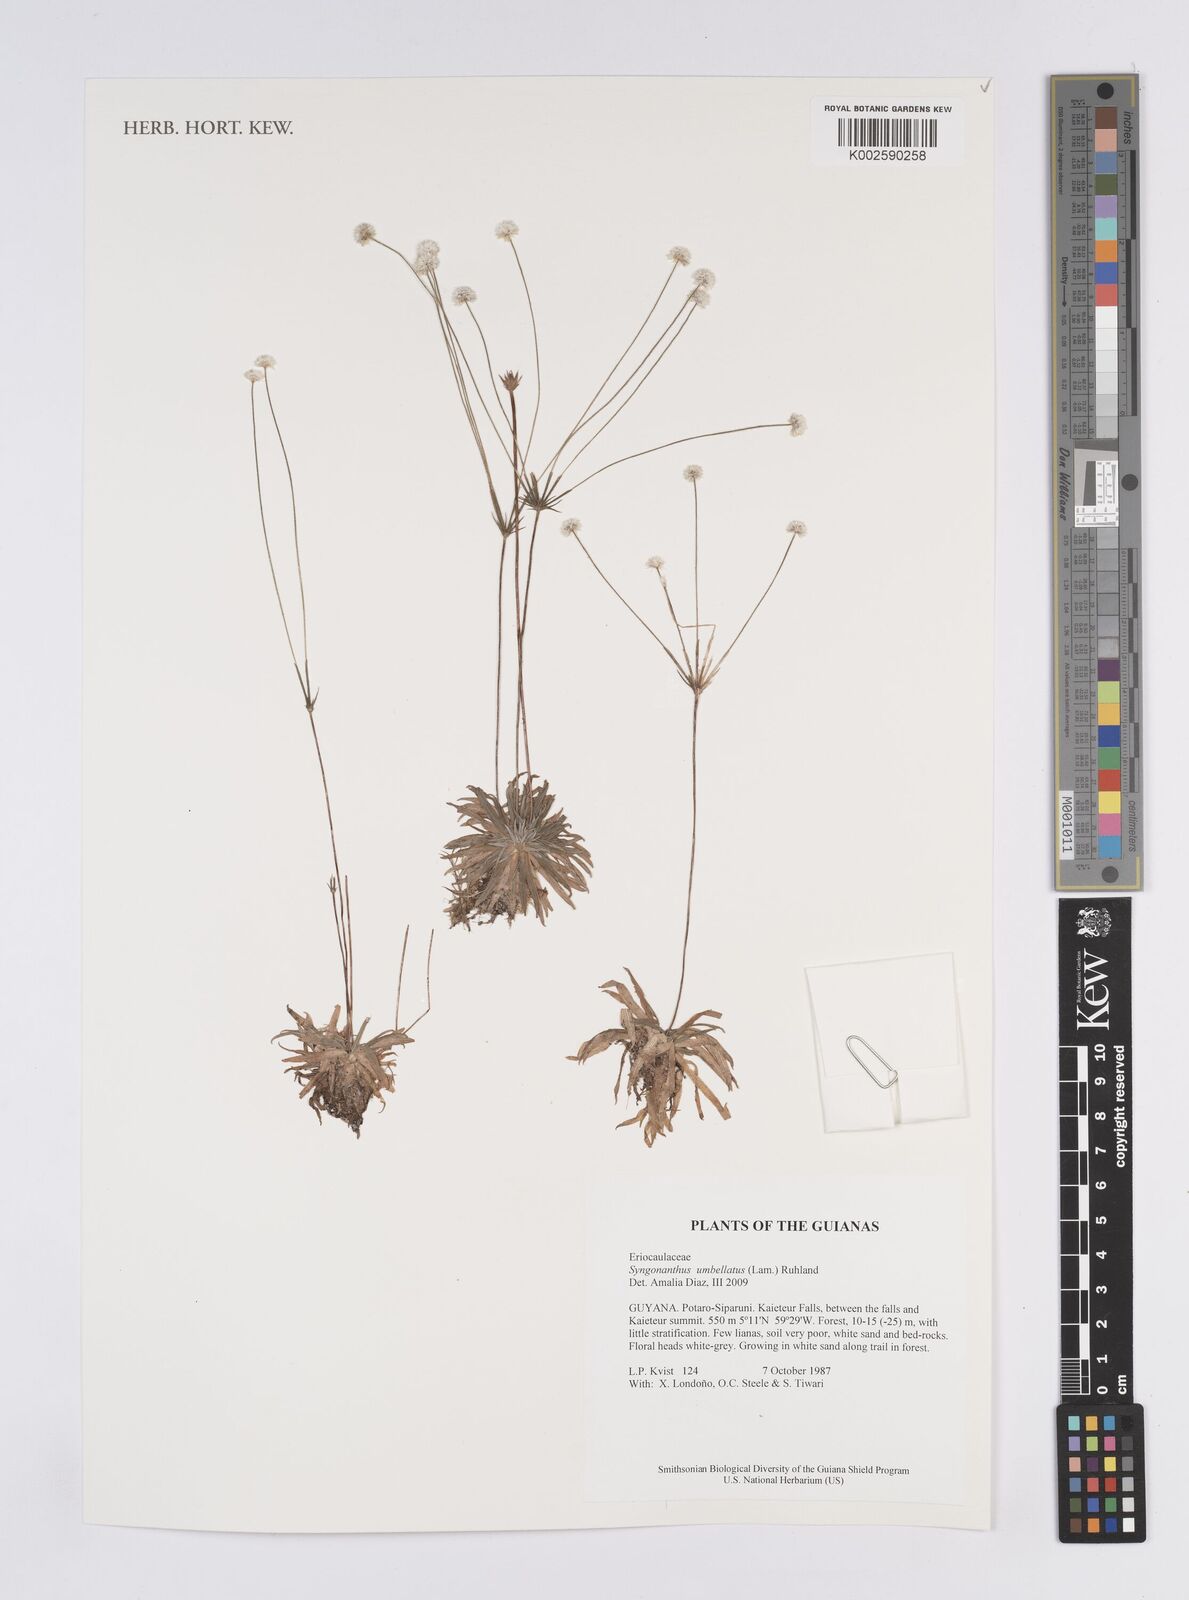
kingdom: Plantae
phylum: Tracheophyta
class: Liliopsida
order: Poales
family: Eriocaulaceae
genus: Syngonanthus
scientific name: Syngonanthus umbellatus
